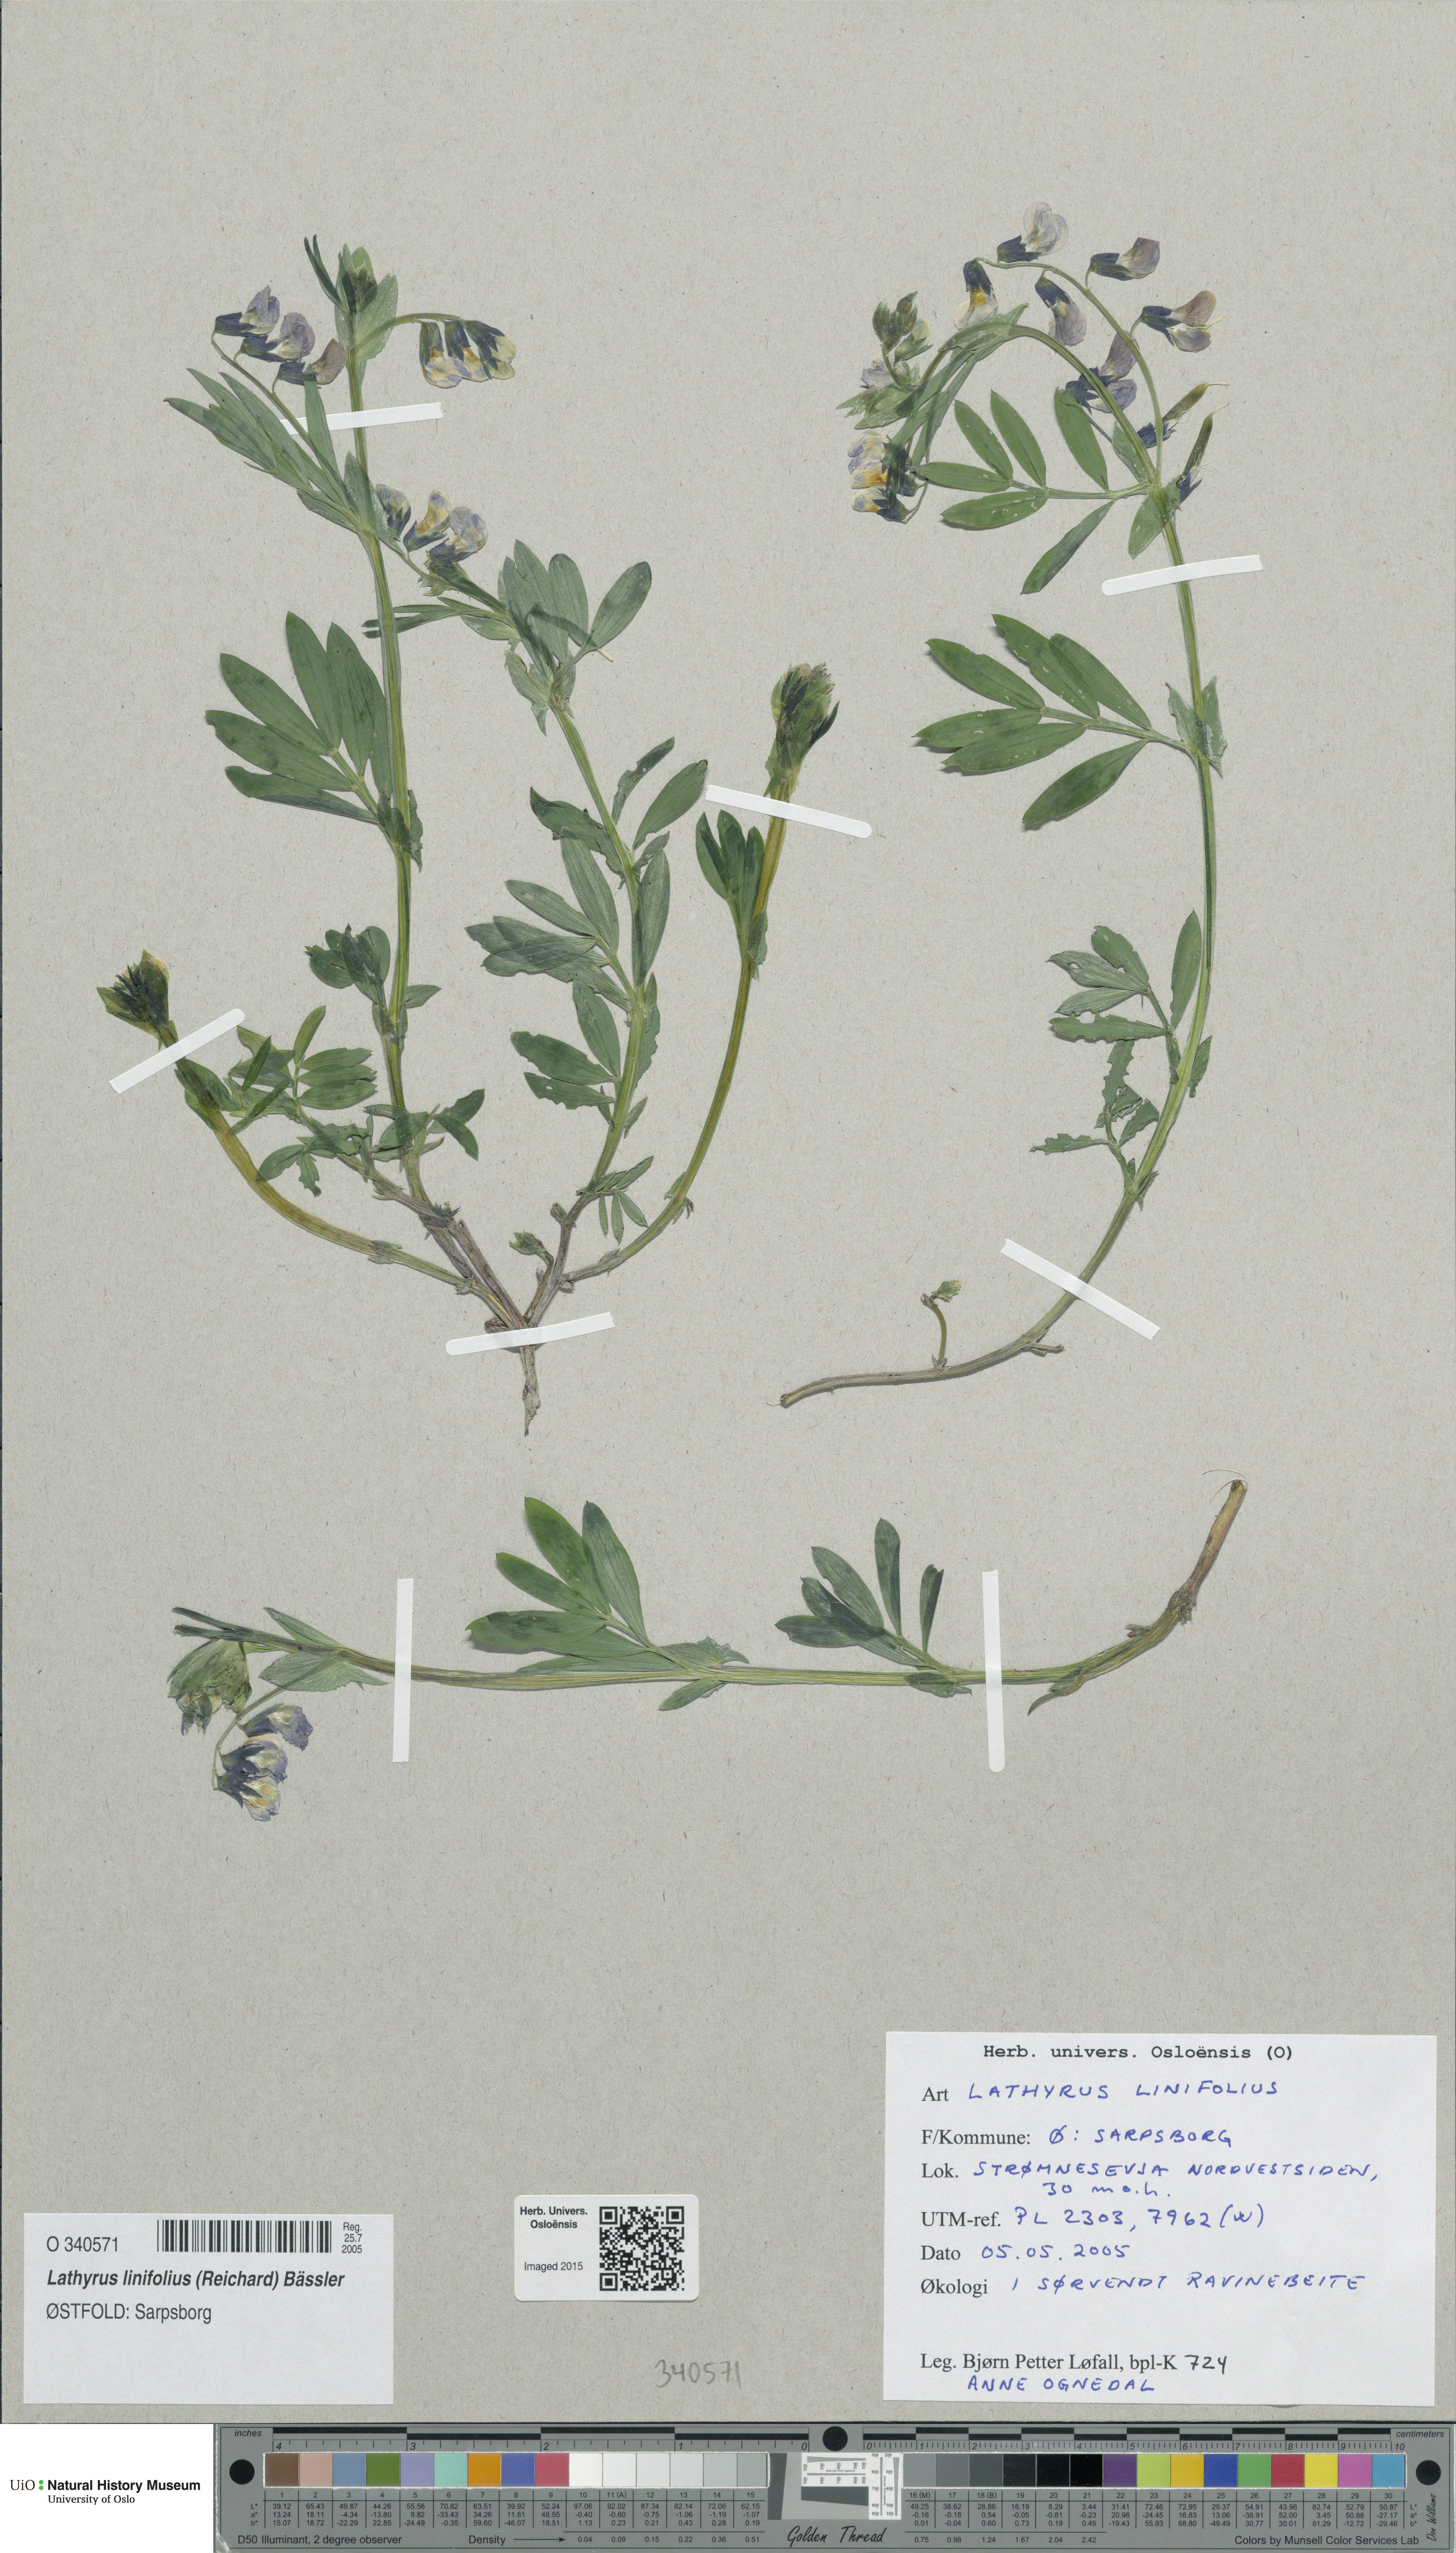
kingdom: Plantae
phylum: Tracheophyta
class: Magnoliopsida
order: Fabales
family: Fabaceae
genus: Lathyrus
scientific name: Lathyrus linifolius
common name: Bitter-vetch
